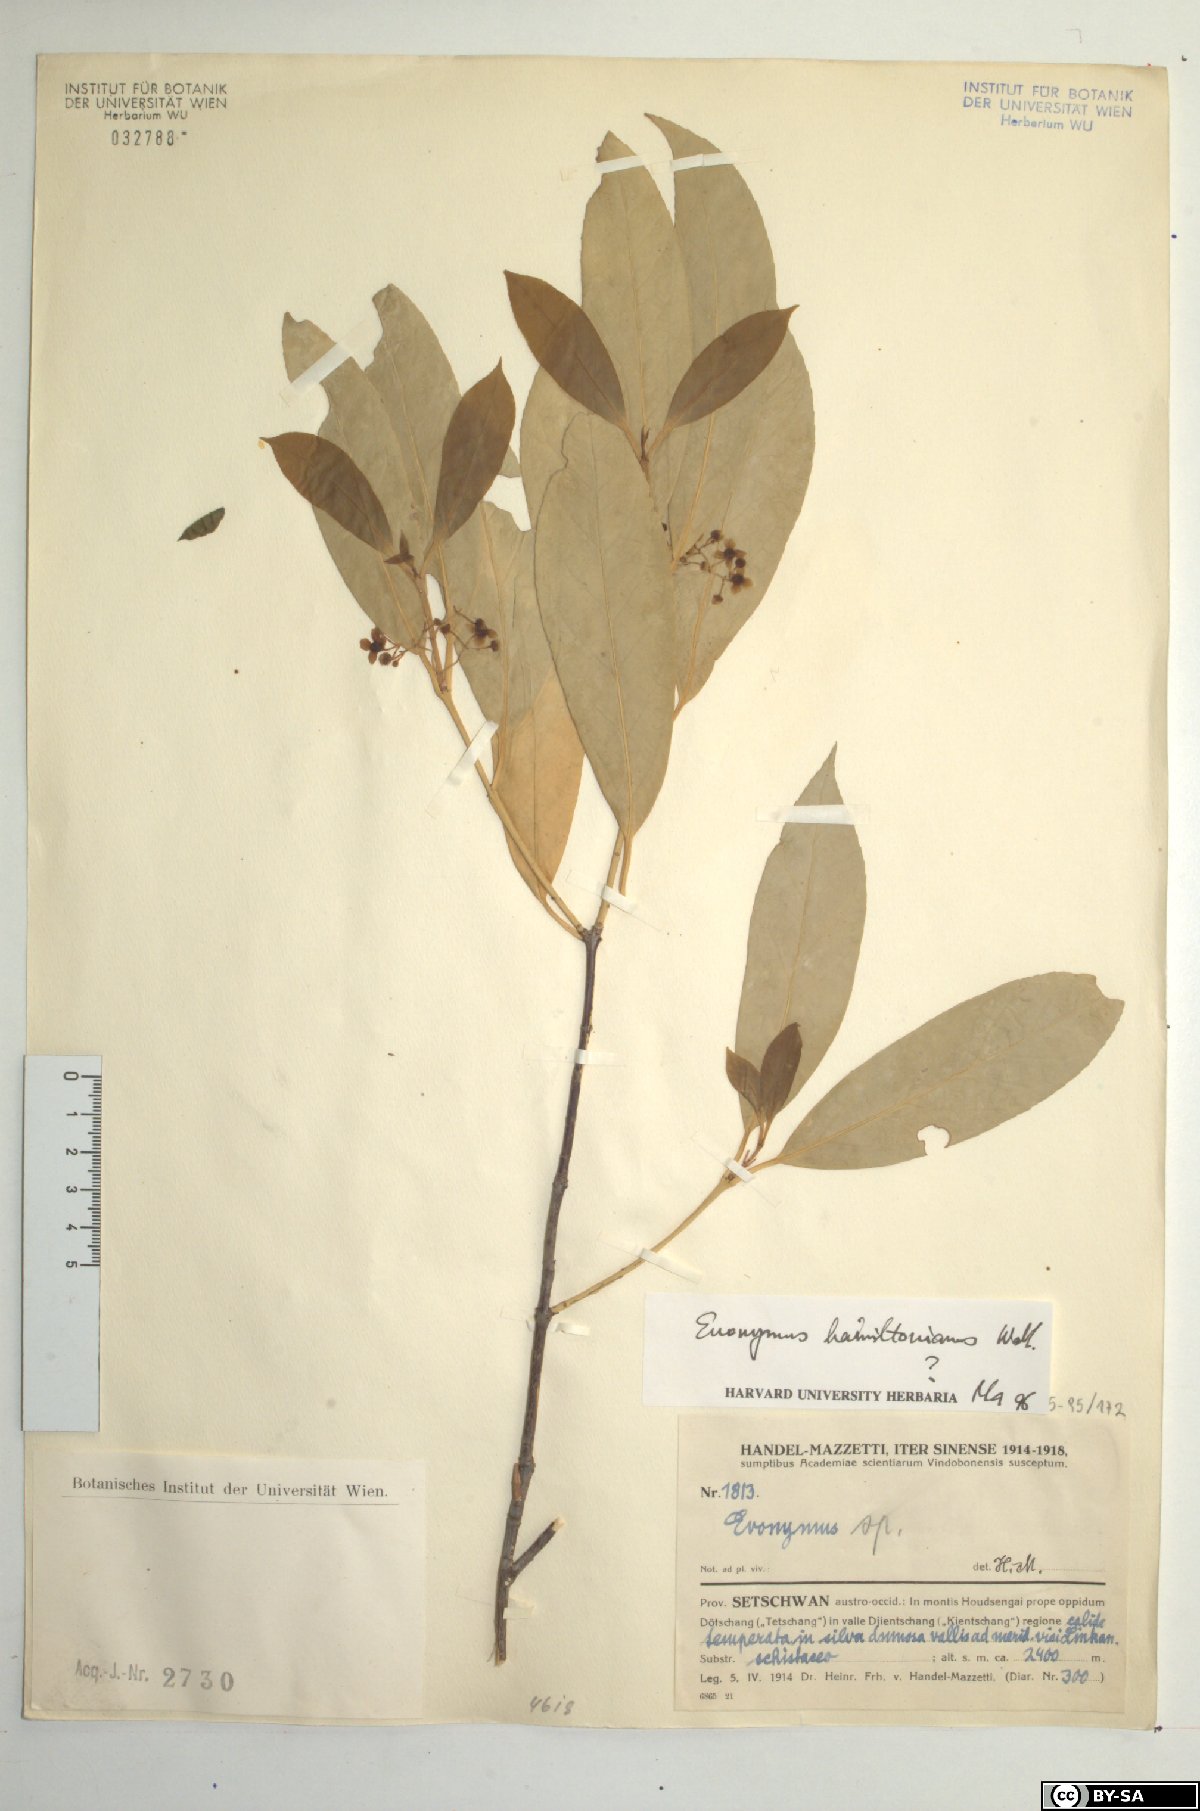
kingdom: Plantae
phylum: Tracheophyta
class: Magnoliopsida
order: Celastrales
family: Celastraceae
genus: Euonymus
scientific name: Euonymus hamiltonianus
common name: Hamilton's spindletree
